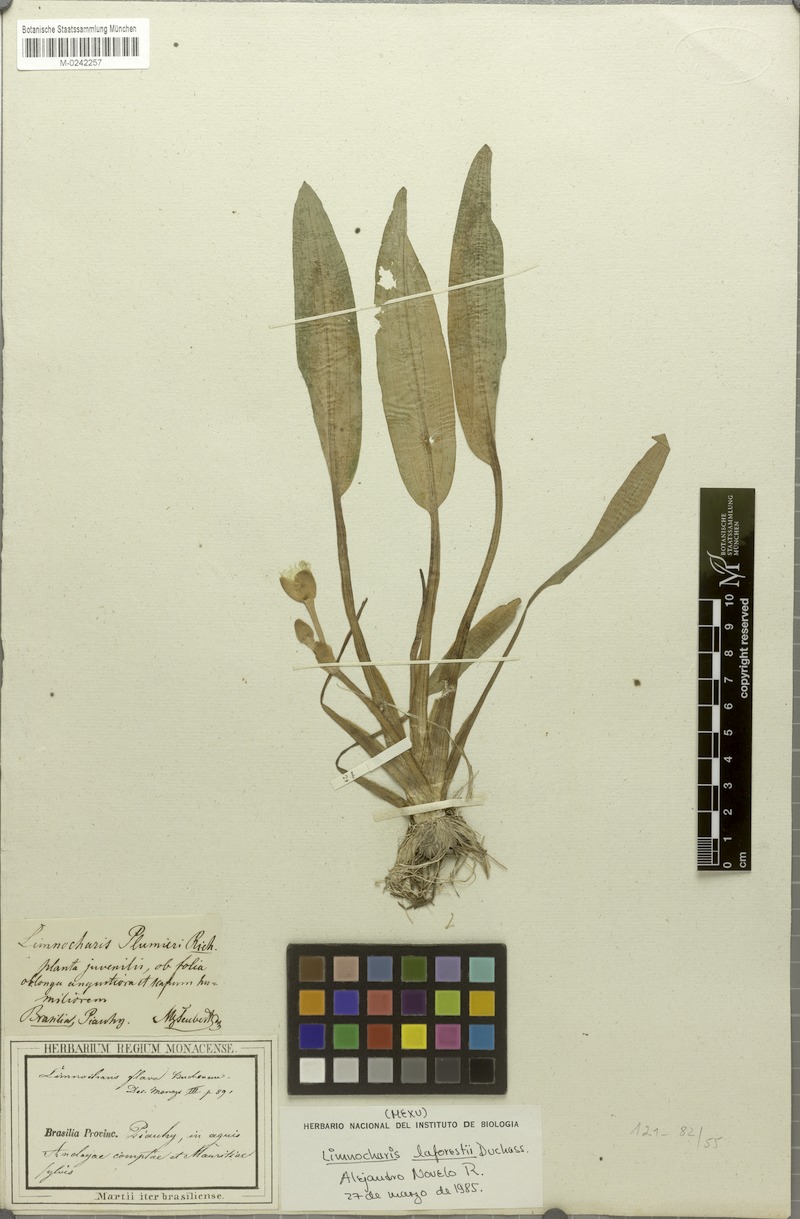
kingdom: Plantae
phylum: Tracheophyta
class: Liliopsida
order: Alismatales
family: Alismataceae
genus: Limnocharis
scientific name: Limnocharis laforestii
